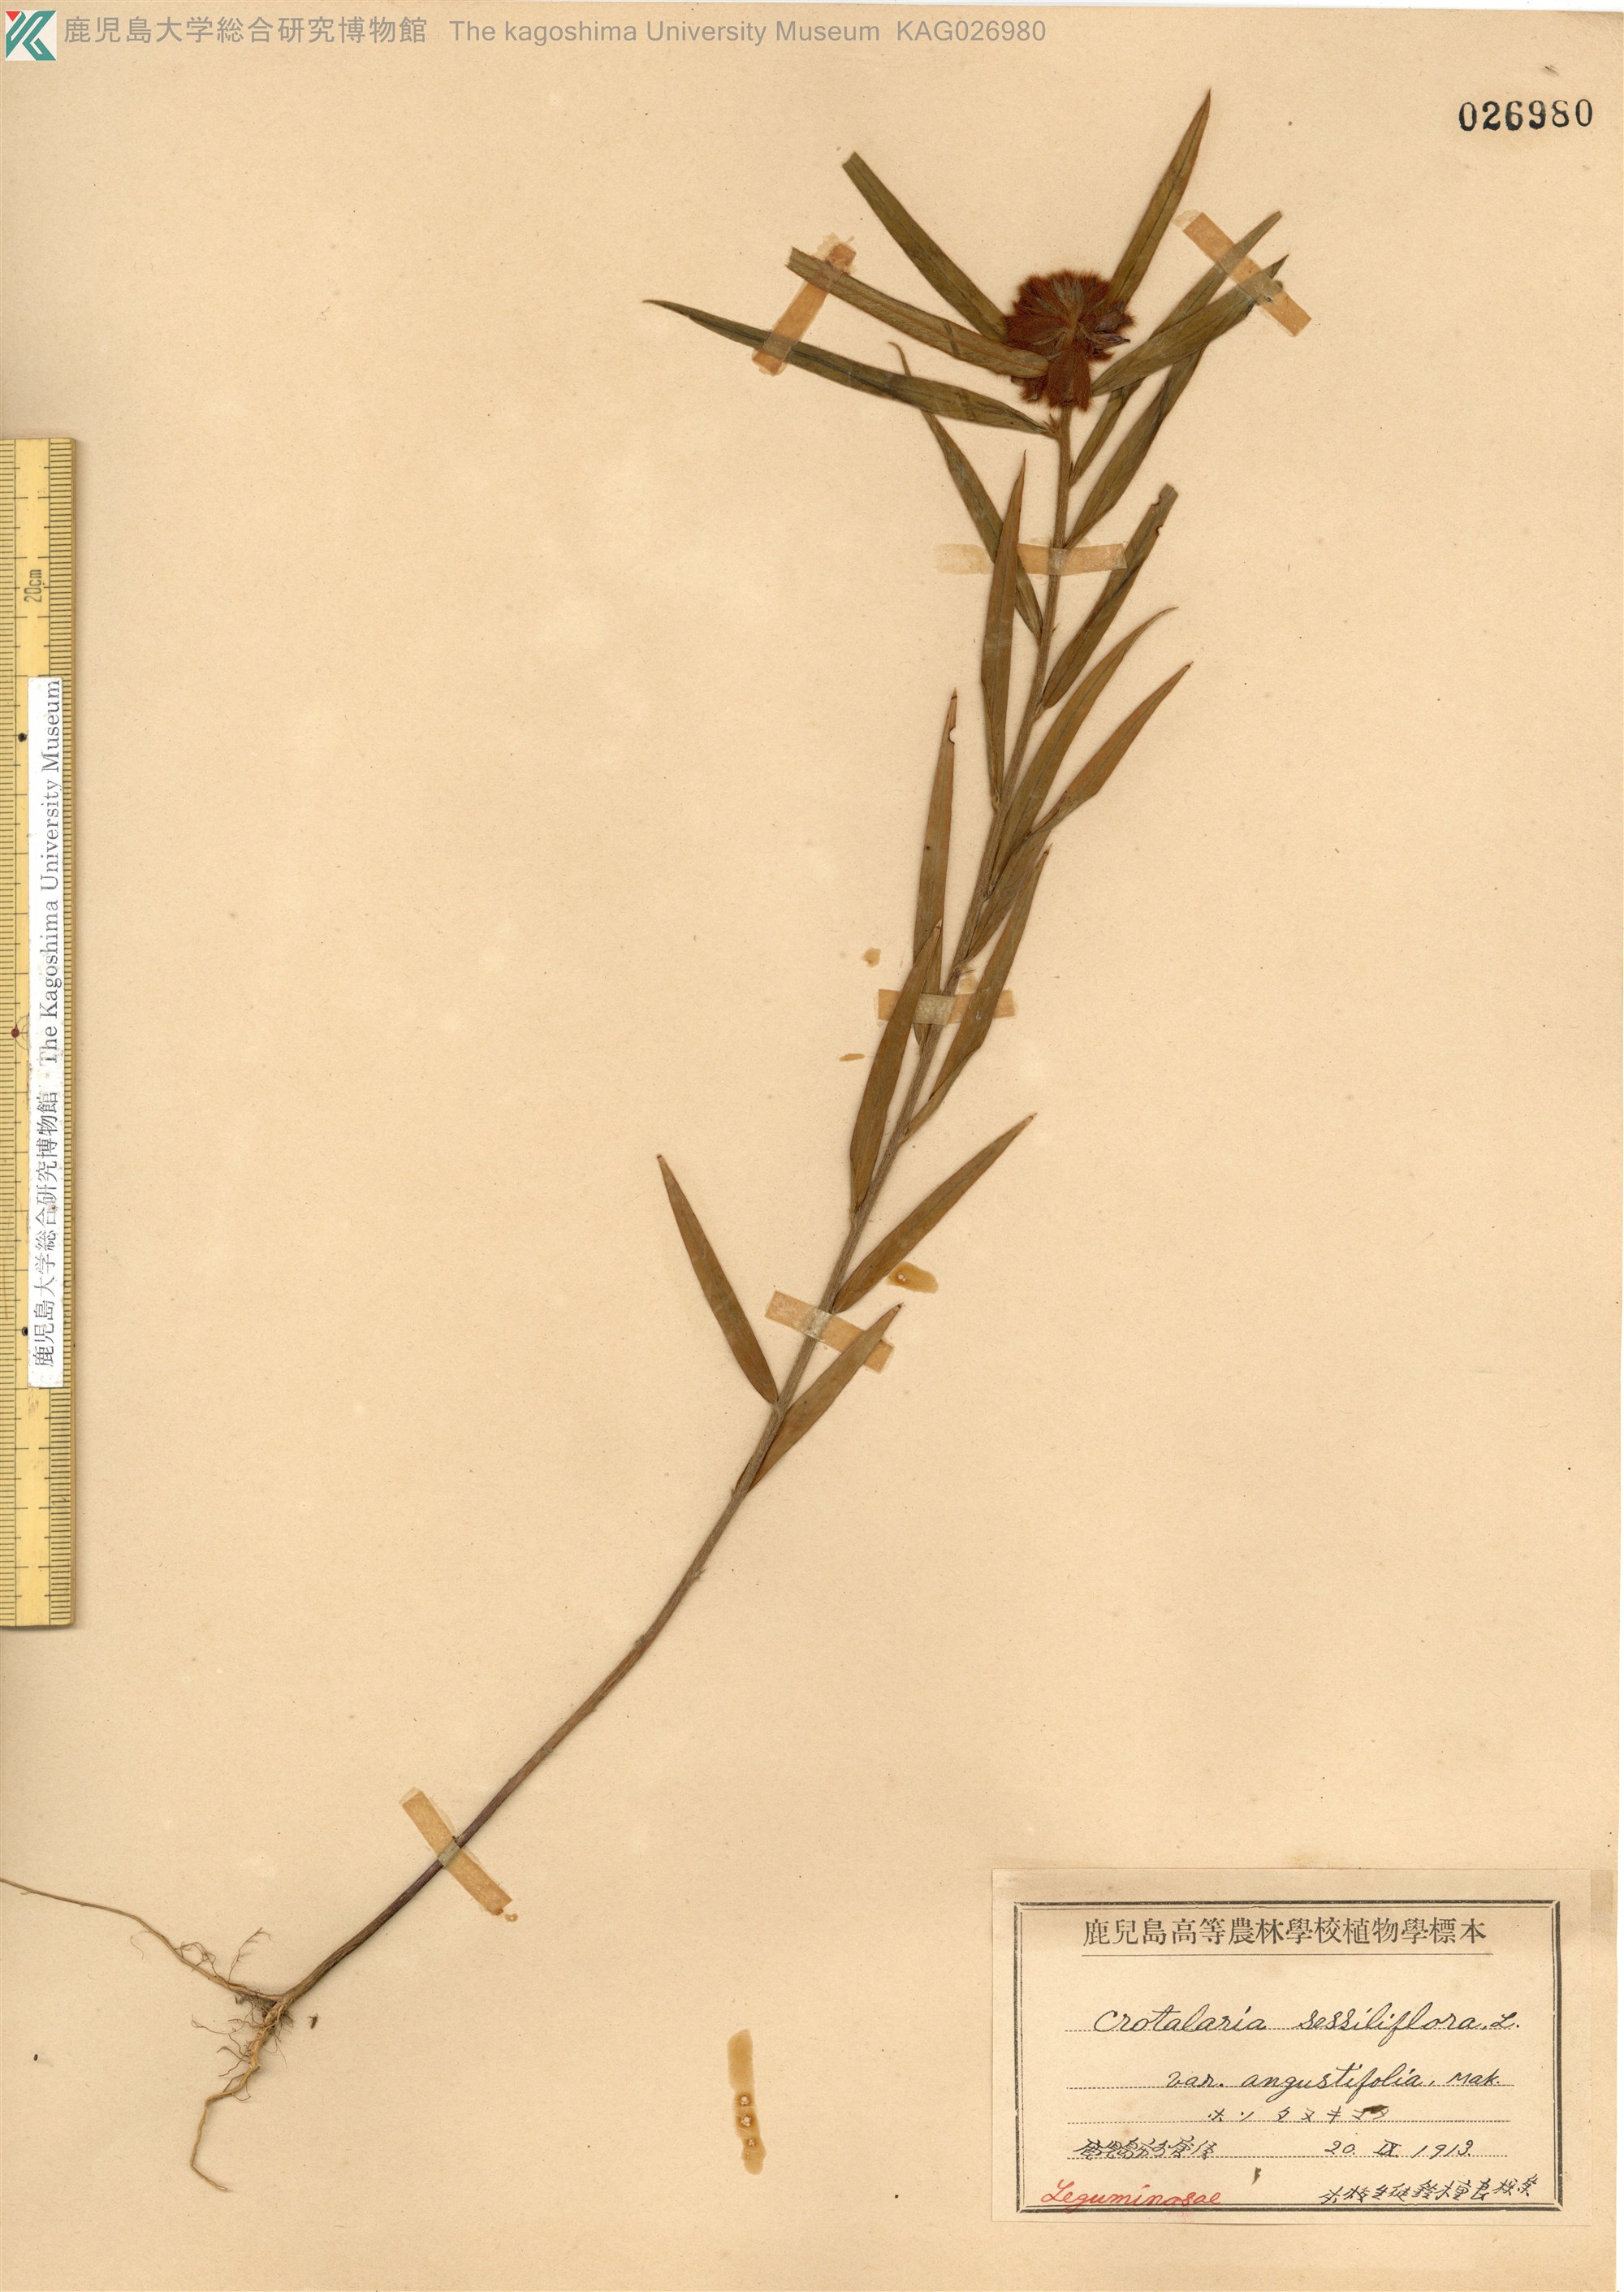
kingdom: Plantae
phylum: Tracheophyta
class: Magnoliopsida
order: Fabales
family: Fabaceae
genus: Crotalaria
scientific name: Crotalaria sessiliflora
